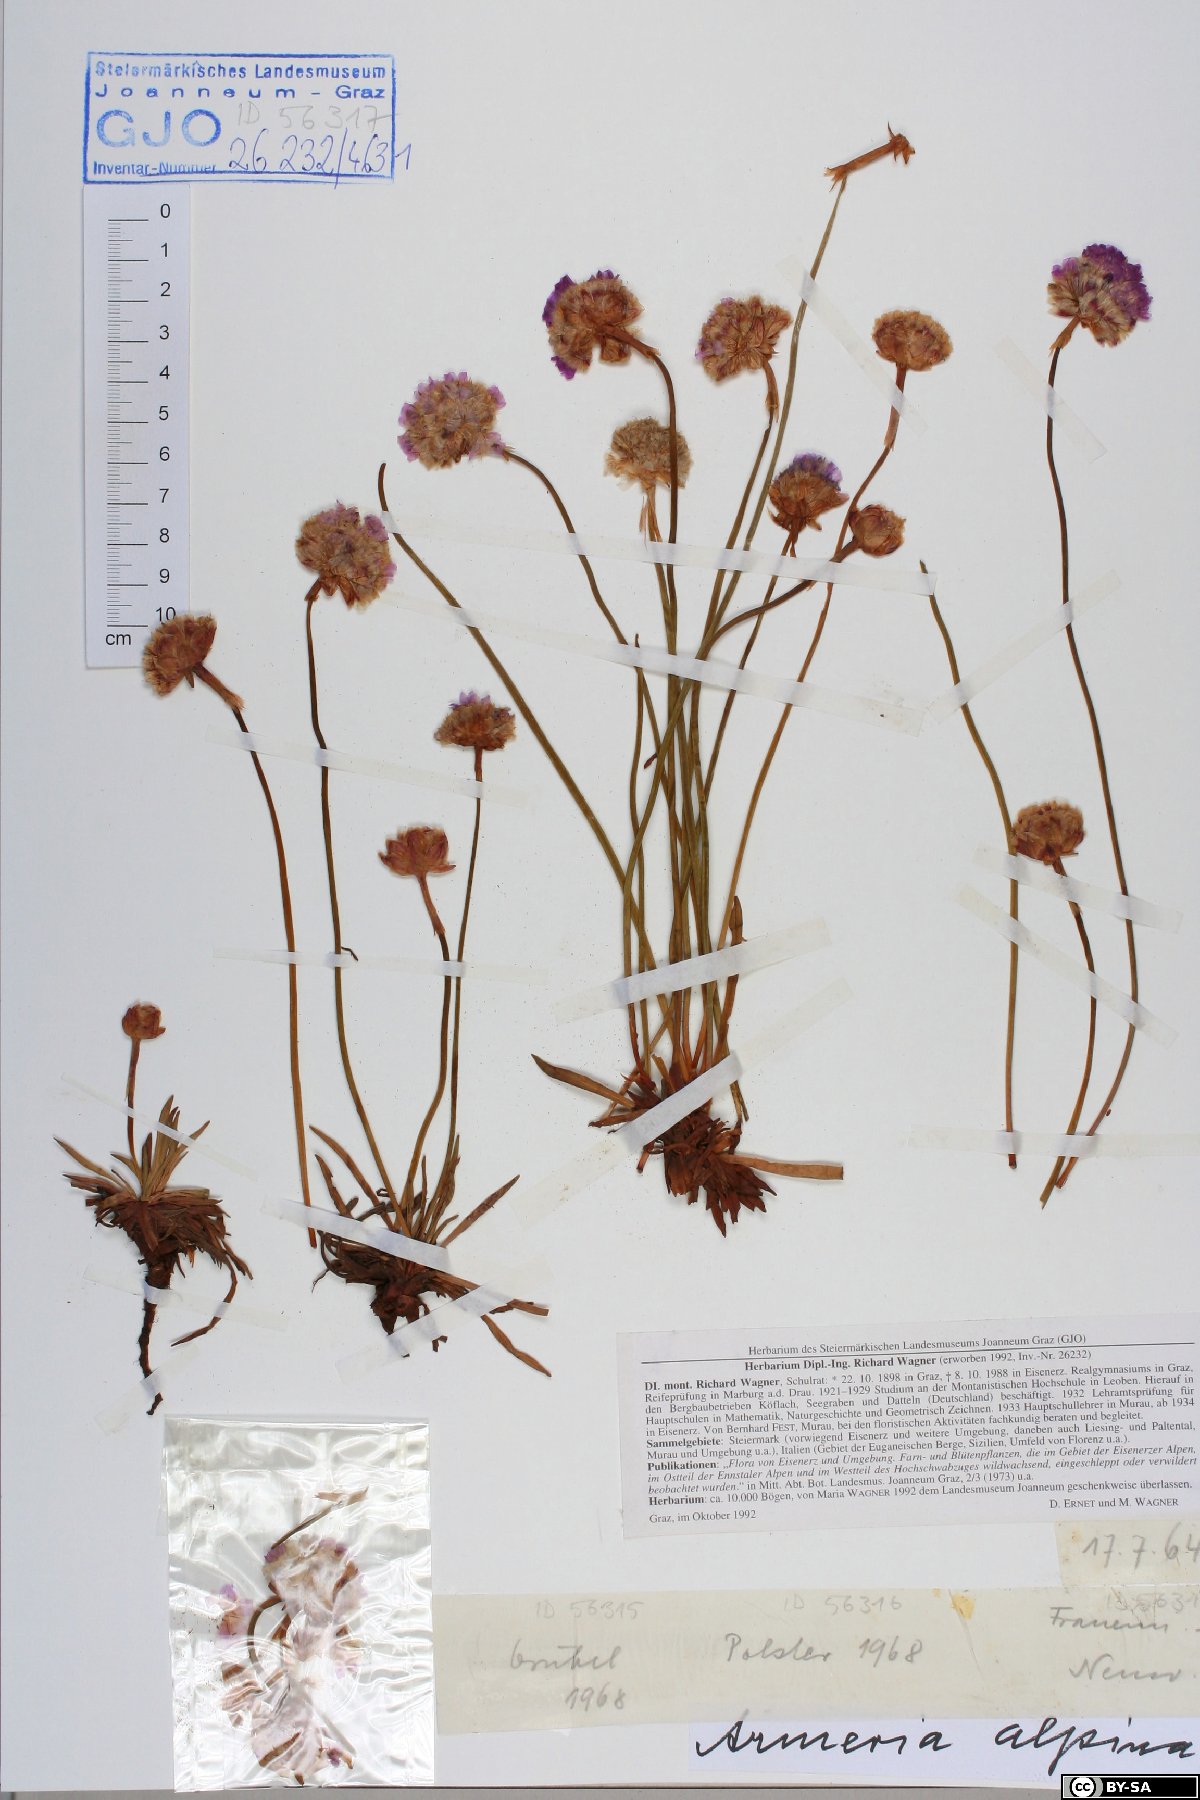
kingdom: Plantae
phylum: Tracheophyta
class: Magnoliopsida
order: Caryophyllales
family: Plumbaginaceae
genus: Armeria
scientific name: Armeria alpina
